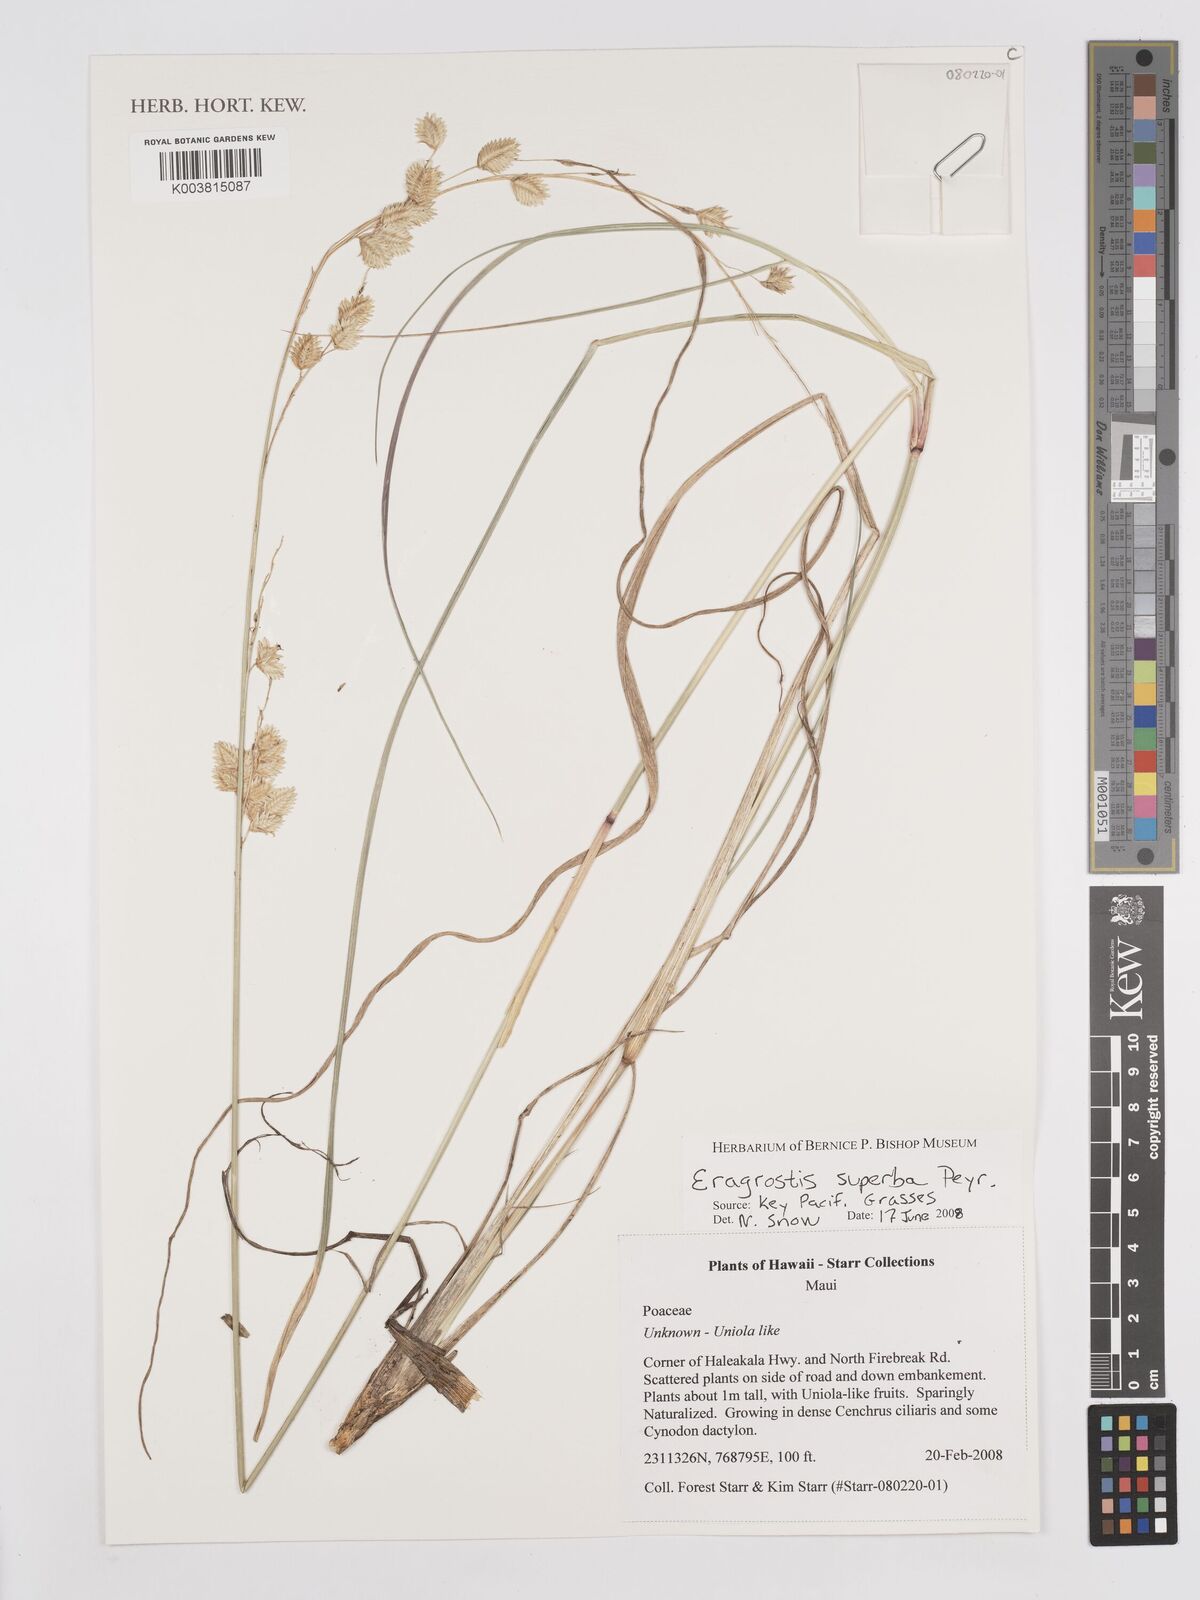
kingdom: Plantae
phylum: Tracheophyta
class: Liliopsida
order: Poales
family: Poaceae
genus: Eragrostis
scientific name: Eragrostis superba
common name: Wilman lovegrass
